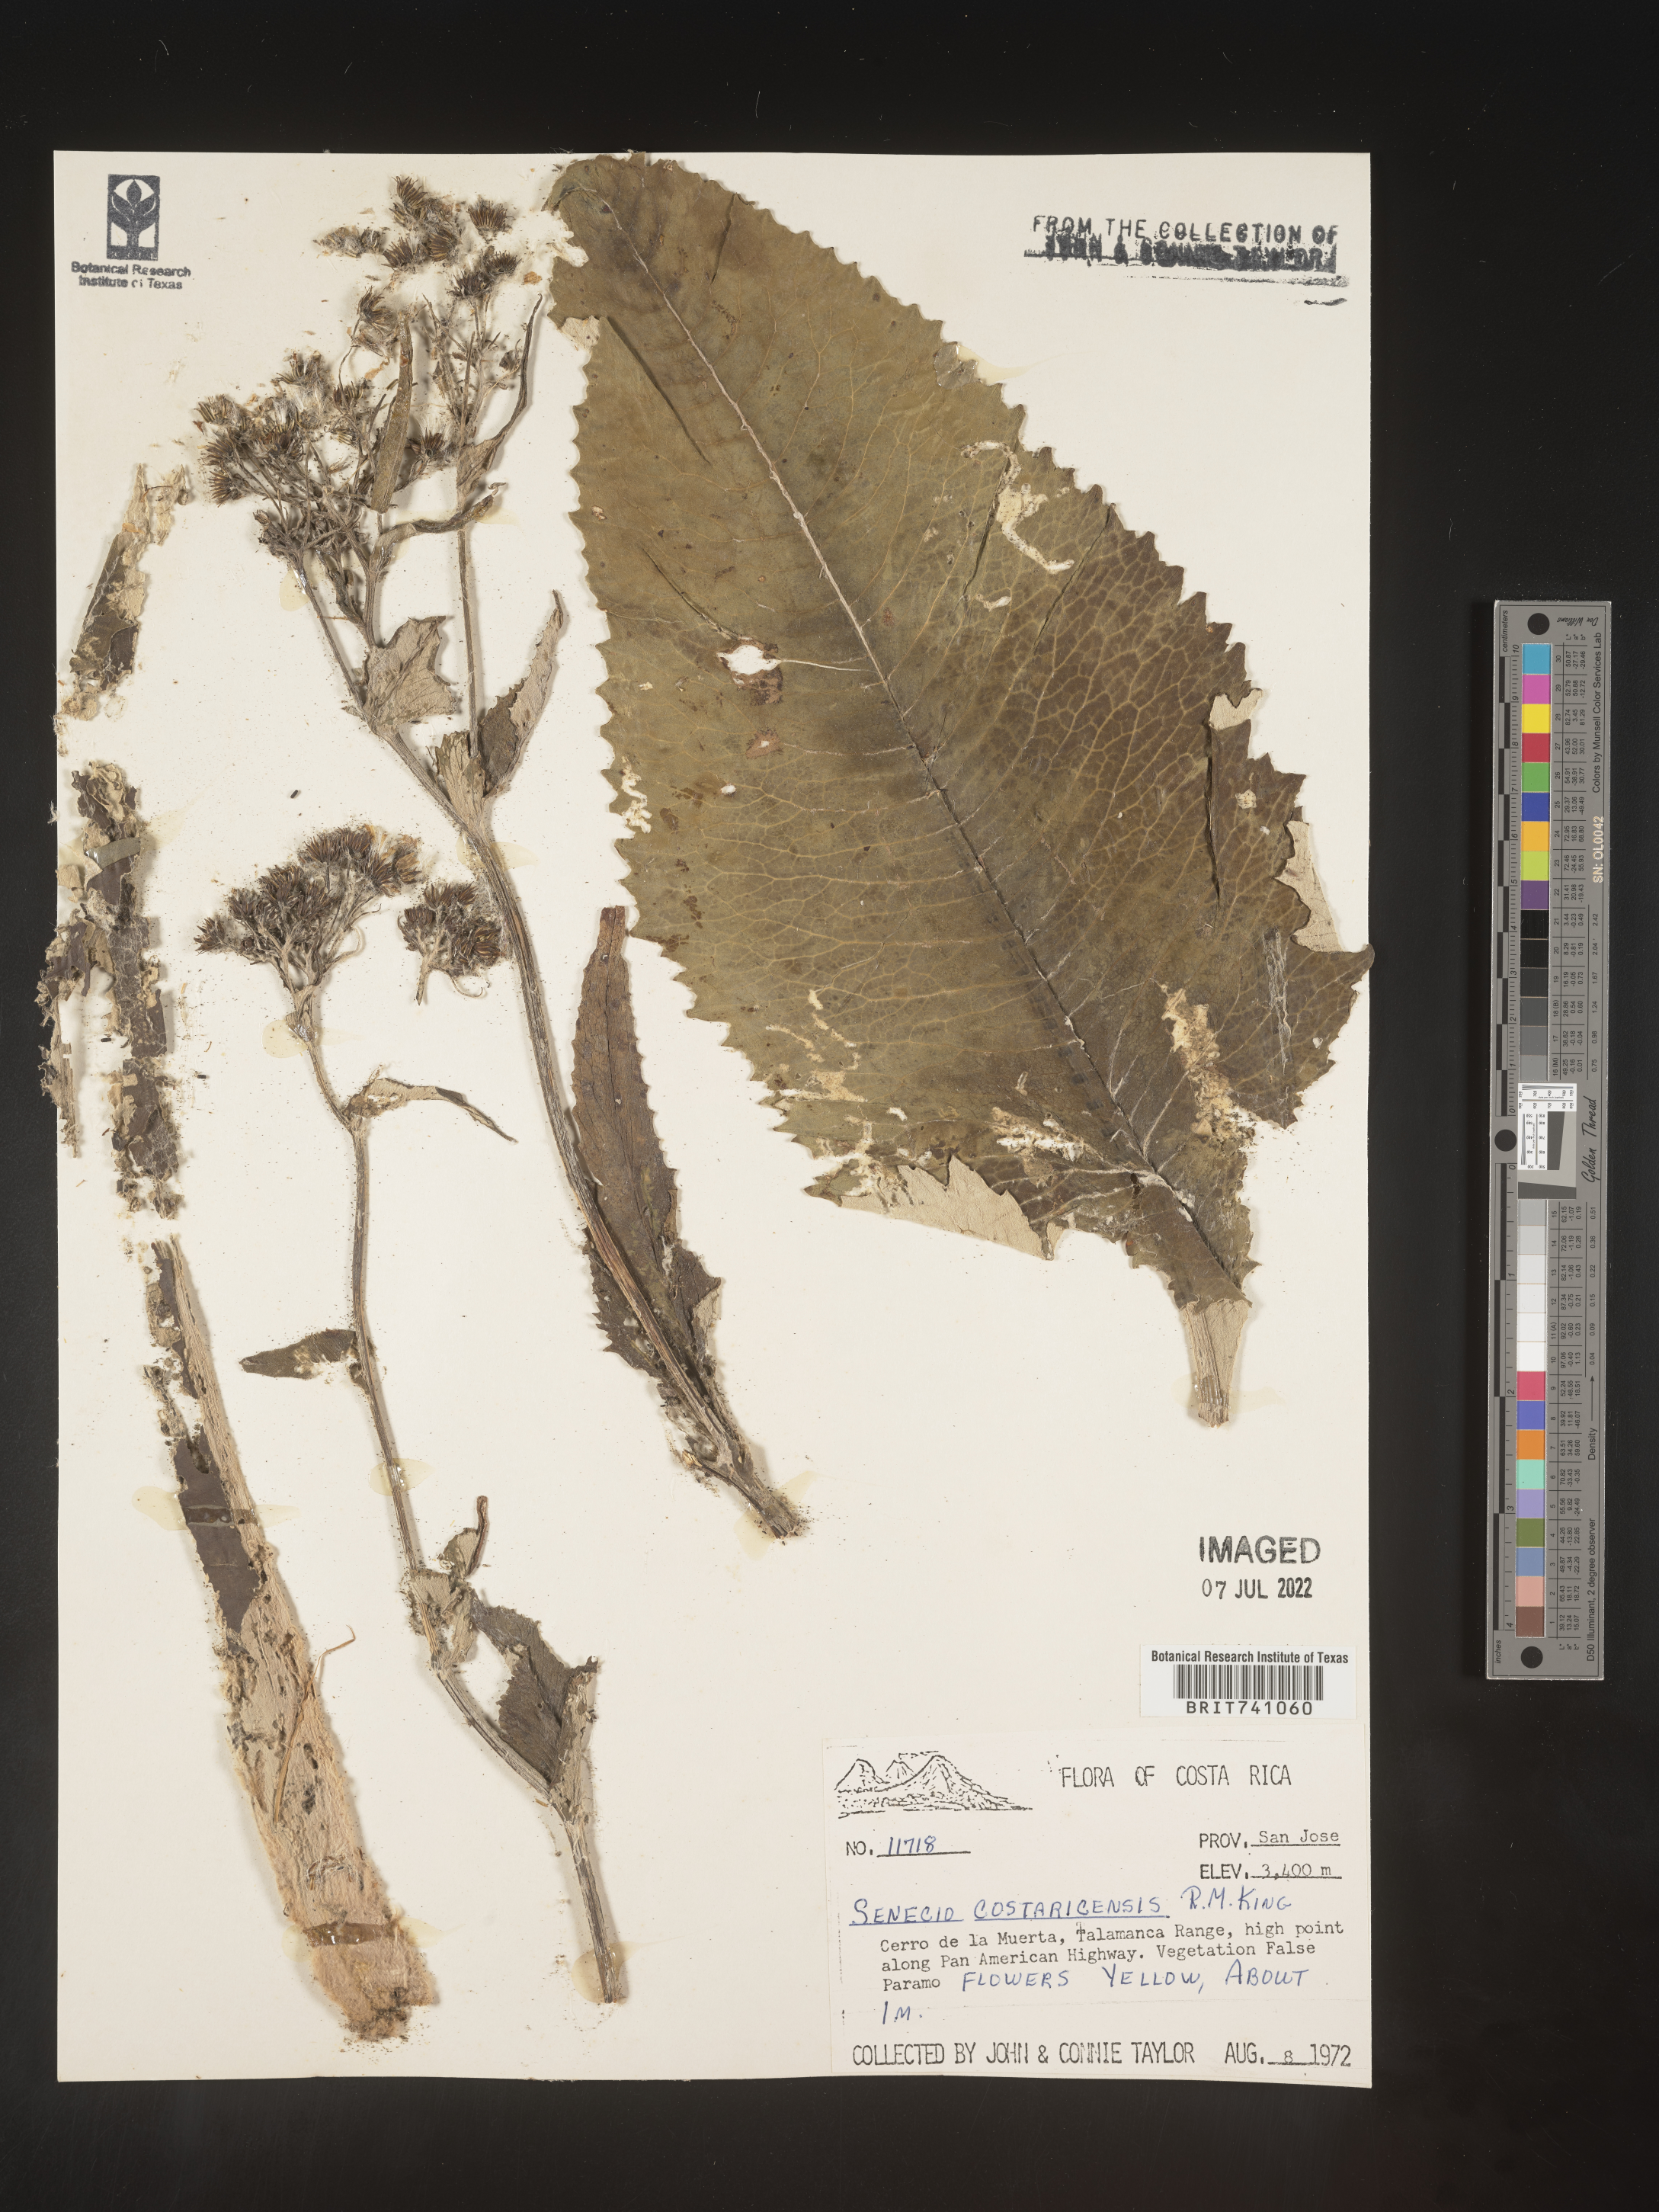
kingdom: Plantae
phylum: Tracheophyta
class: Magnoliopsida
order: Asterales
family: Asteraceae
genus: Senecio
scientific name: Senecio
